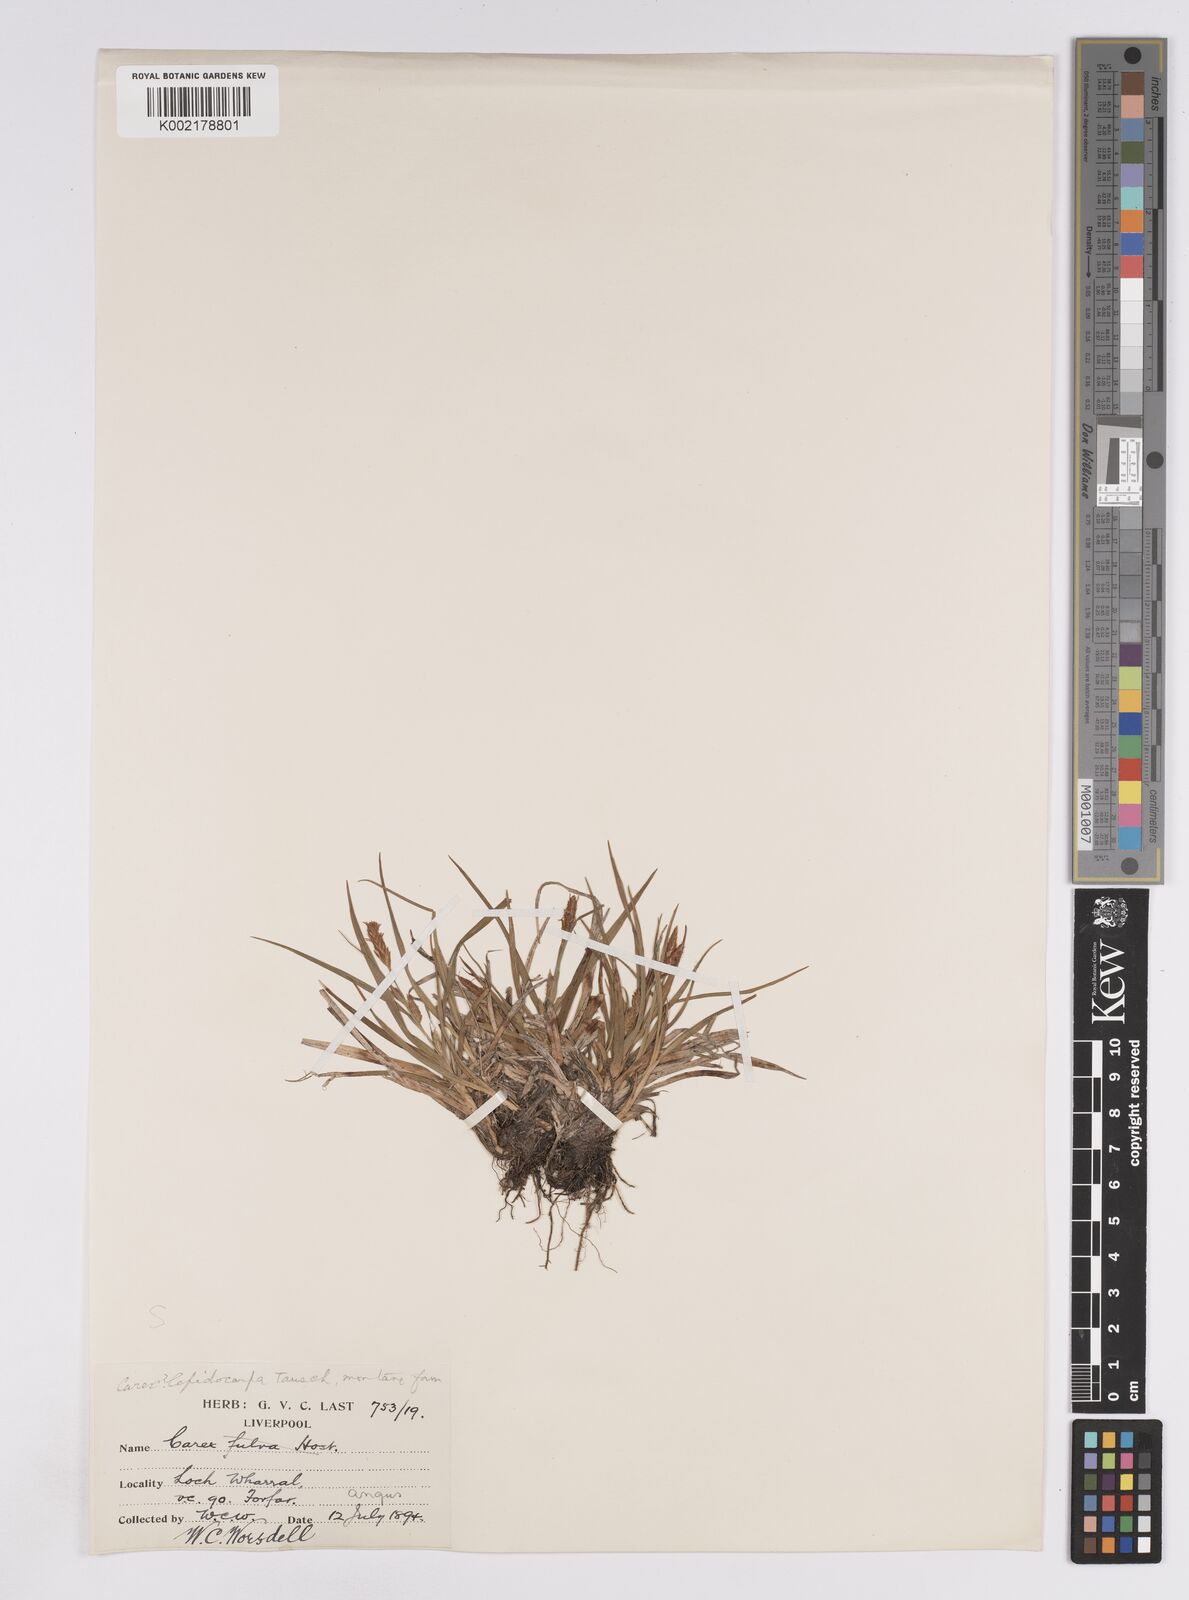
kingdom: Plantae
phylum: Tracheophyta
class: Liliopsida
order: Poales
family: Cyperaceae
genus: Carex
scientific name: Carex lepidocarpa
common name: Long-stalked yellow-sedge
